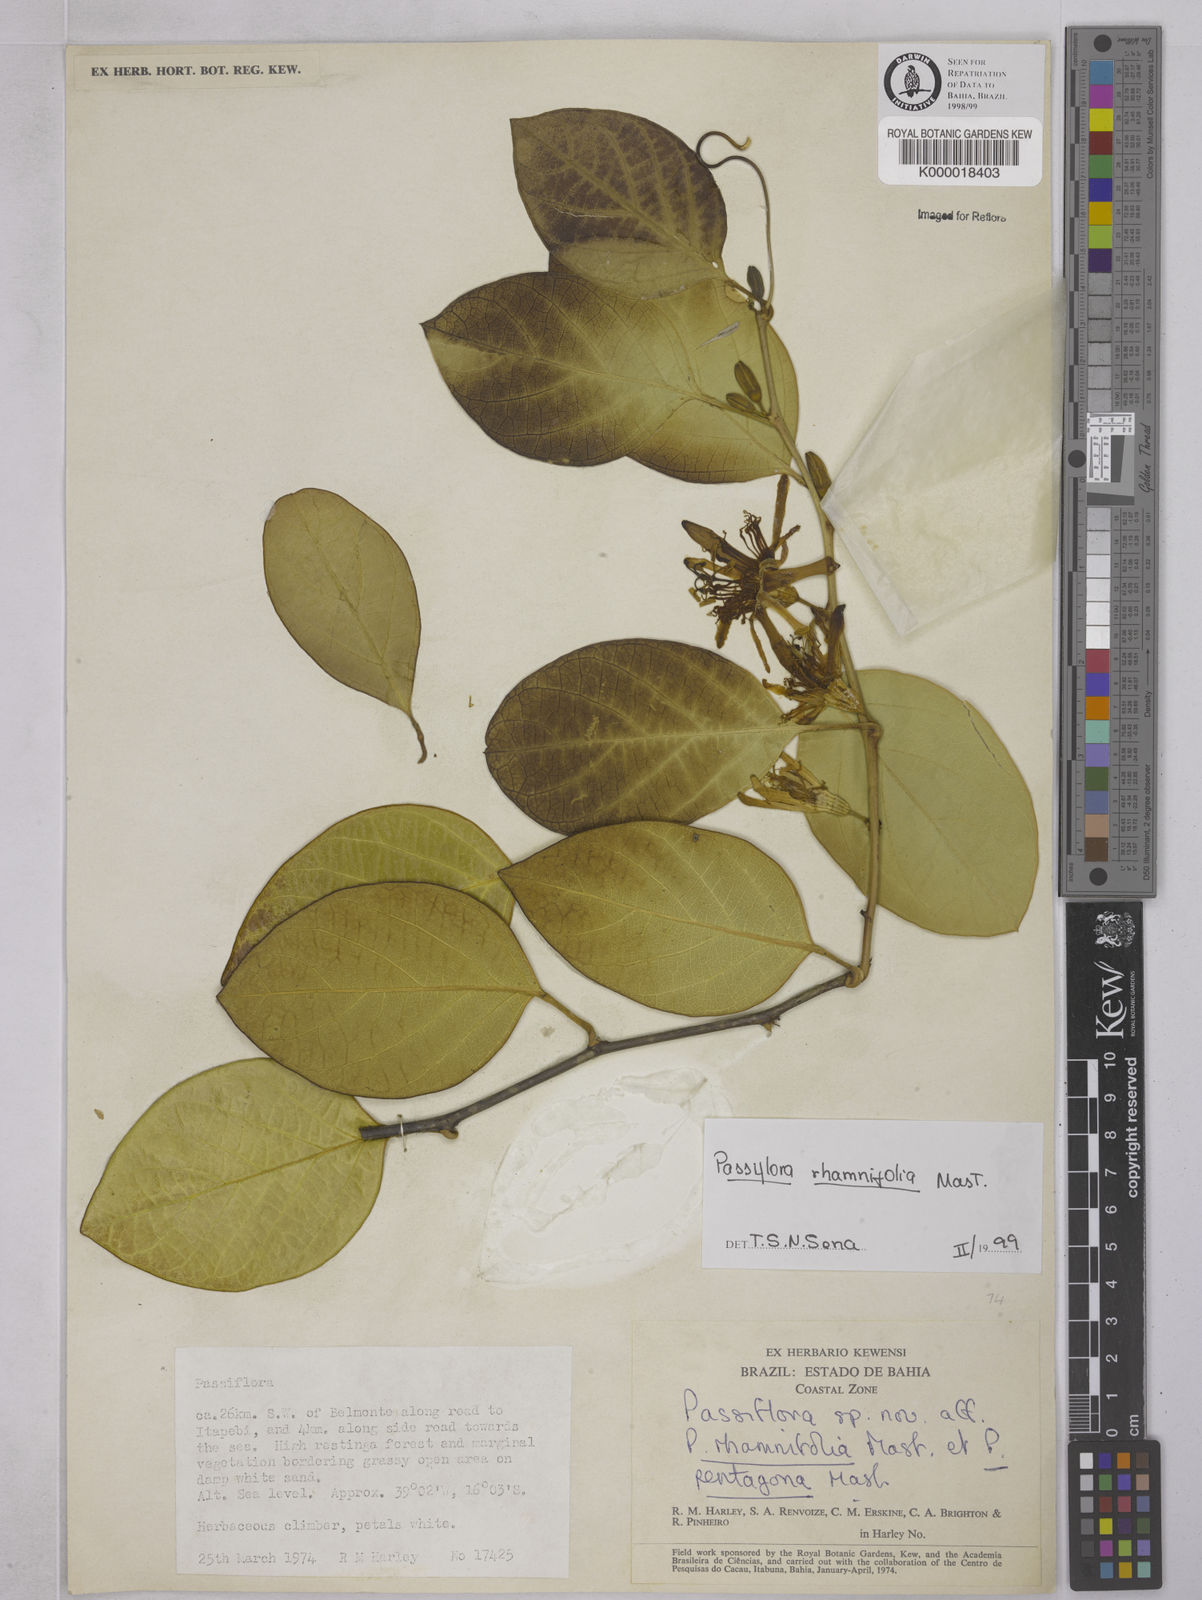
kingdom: Plantae
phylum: Tracheophyta
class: Magnoliopsida
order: Malpighiales
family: Passifloraceae
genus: Passiflora
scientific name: Passiflora rhamnifolia
